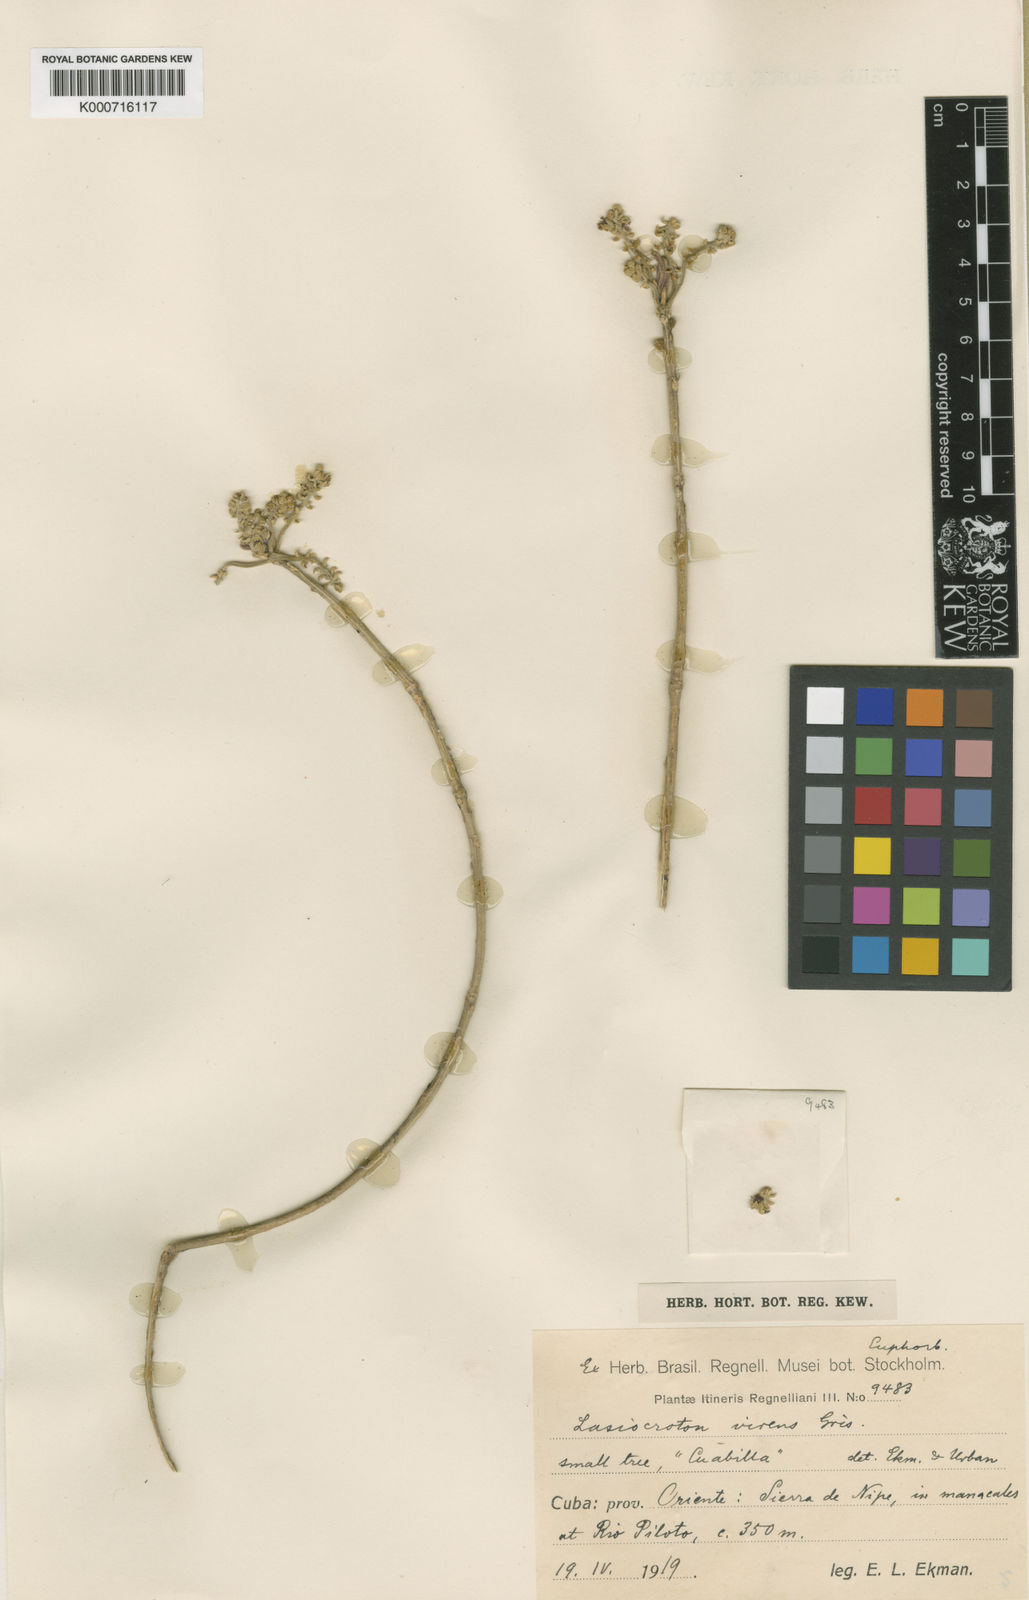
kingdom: Plantae
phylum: Tracheophyta
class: Magnoliopsida
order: Malpighiales
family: Euphorbiaceae
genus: Lasiocroton
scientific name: Lasiocroton
